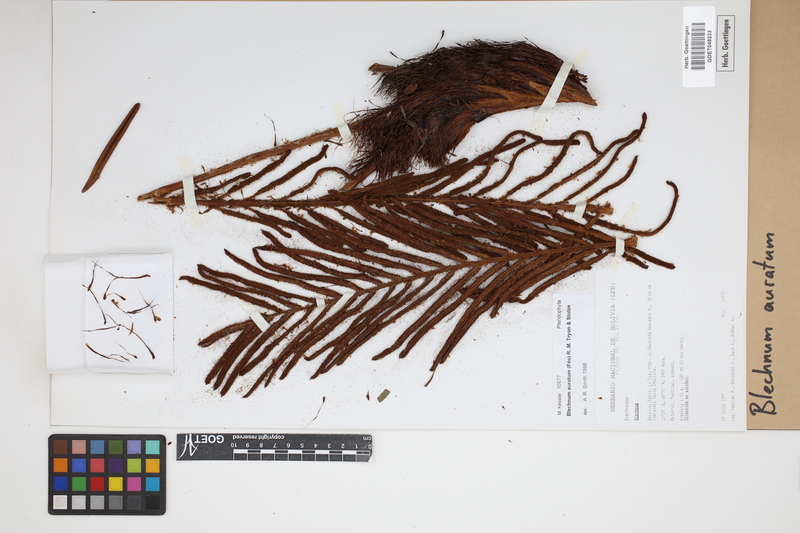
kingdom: Plantae
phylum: Tracheophyta
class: Polypodiopsida
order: Polypodiales
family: Blechnaceae
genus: Lomariocycas
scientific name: Lomariocycas aurata
